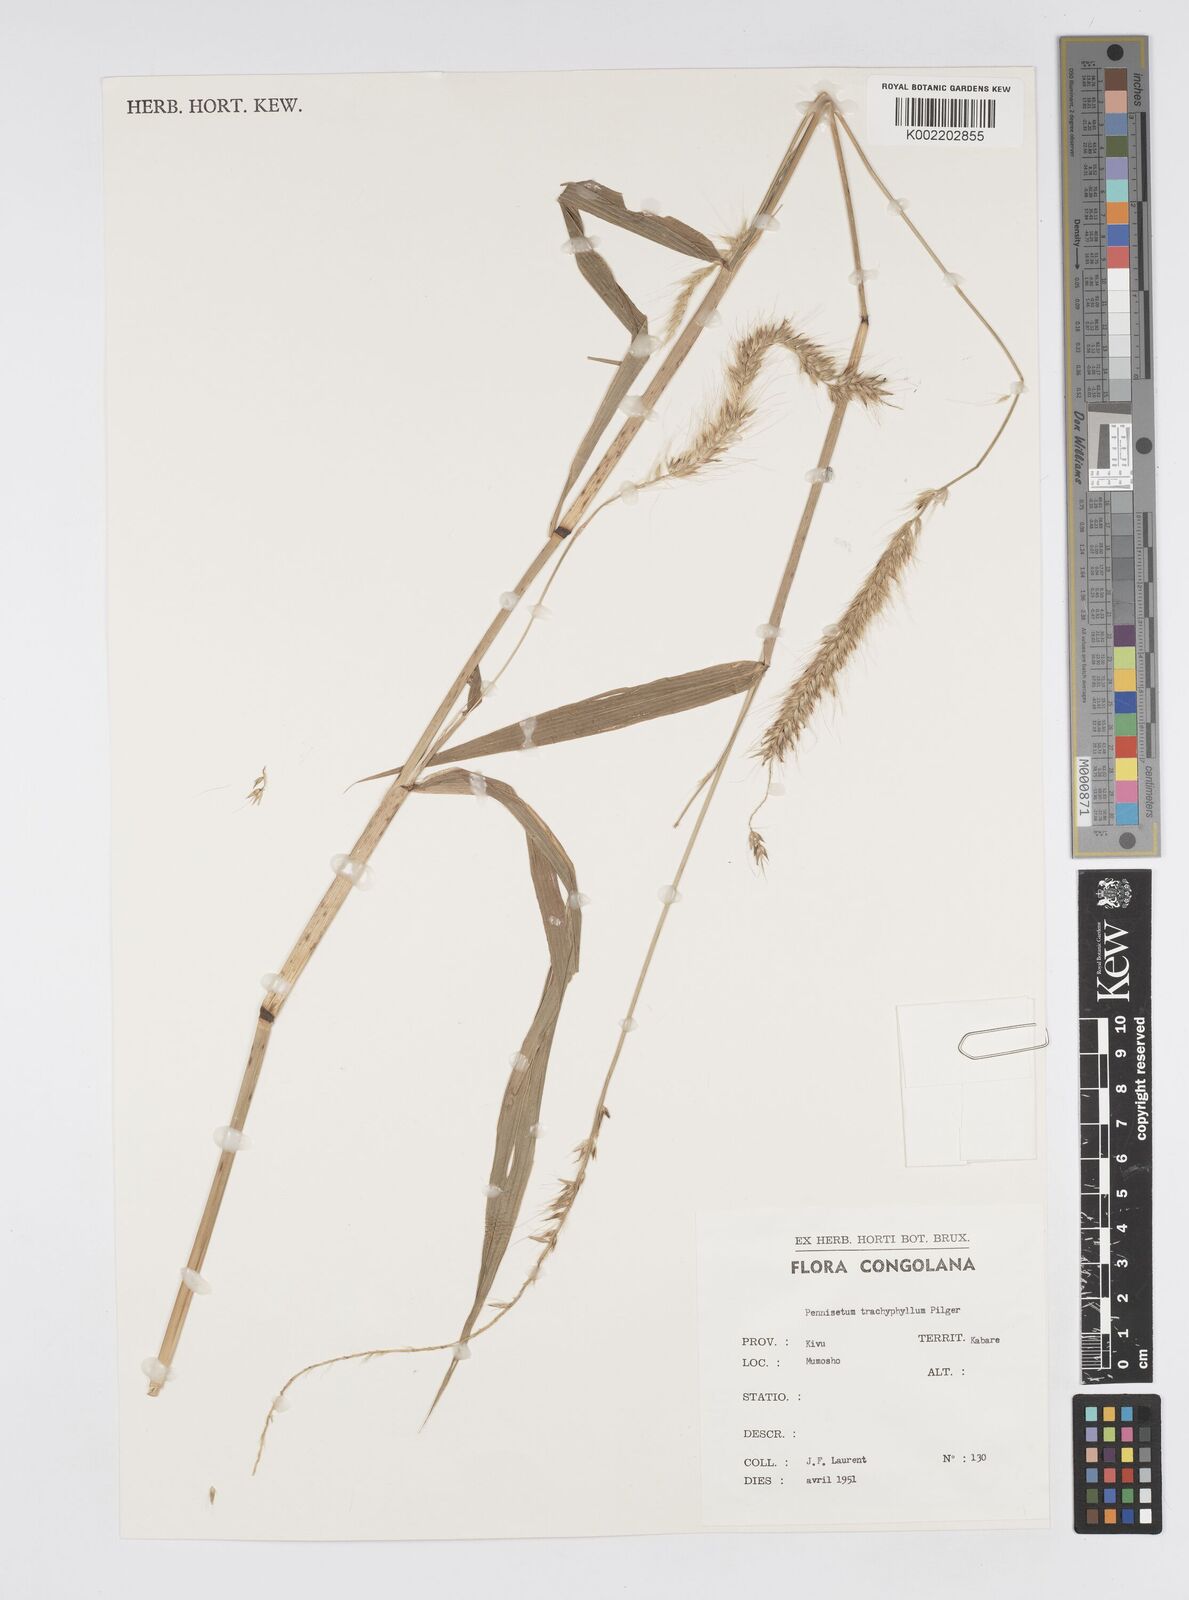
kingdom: Plantae
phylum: Tracheophyta
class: Liliopsida
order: Poales
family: Poaceae
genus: Cenchrus
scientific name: Cenchrus trachyphyllus
